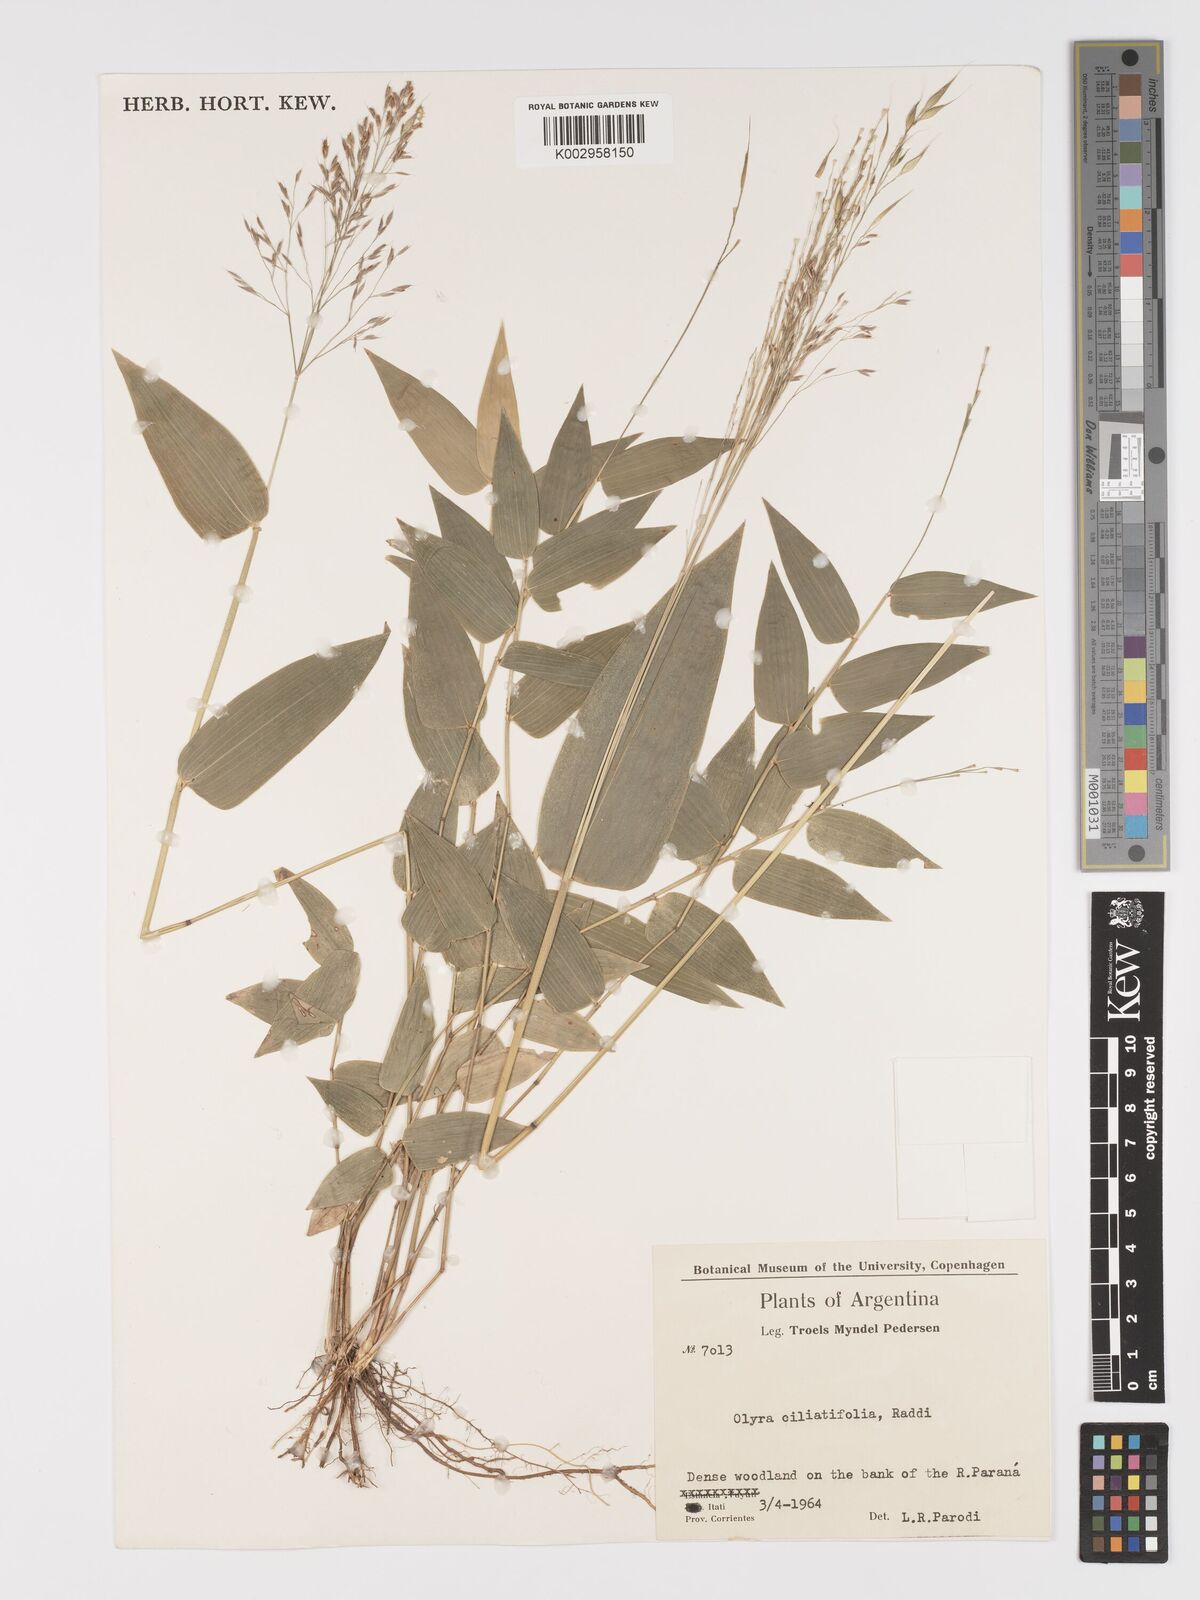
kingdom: Plantae
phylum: Tracheophyta
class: Liliopsida
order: Poales
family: Poaceae
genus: Olyra
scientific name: Olyra ciliatifolia
